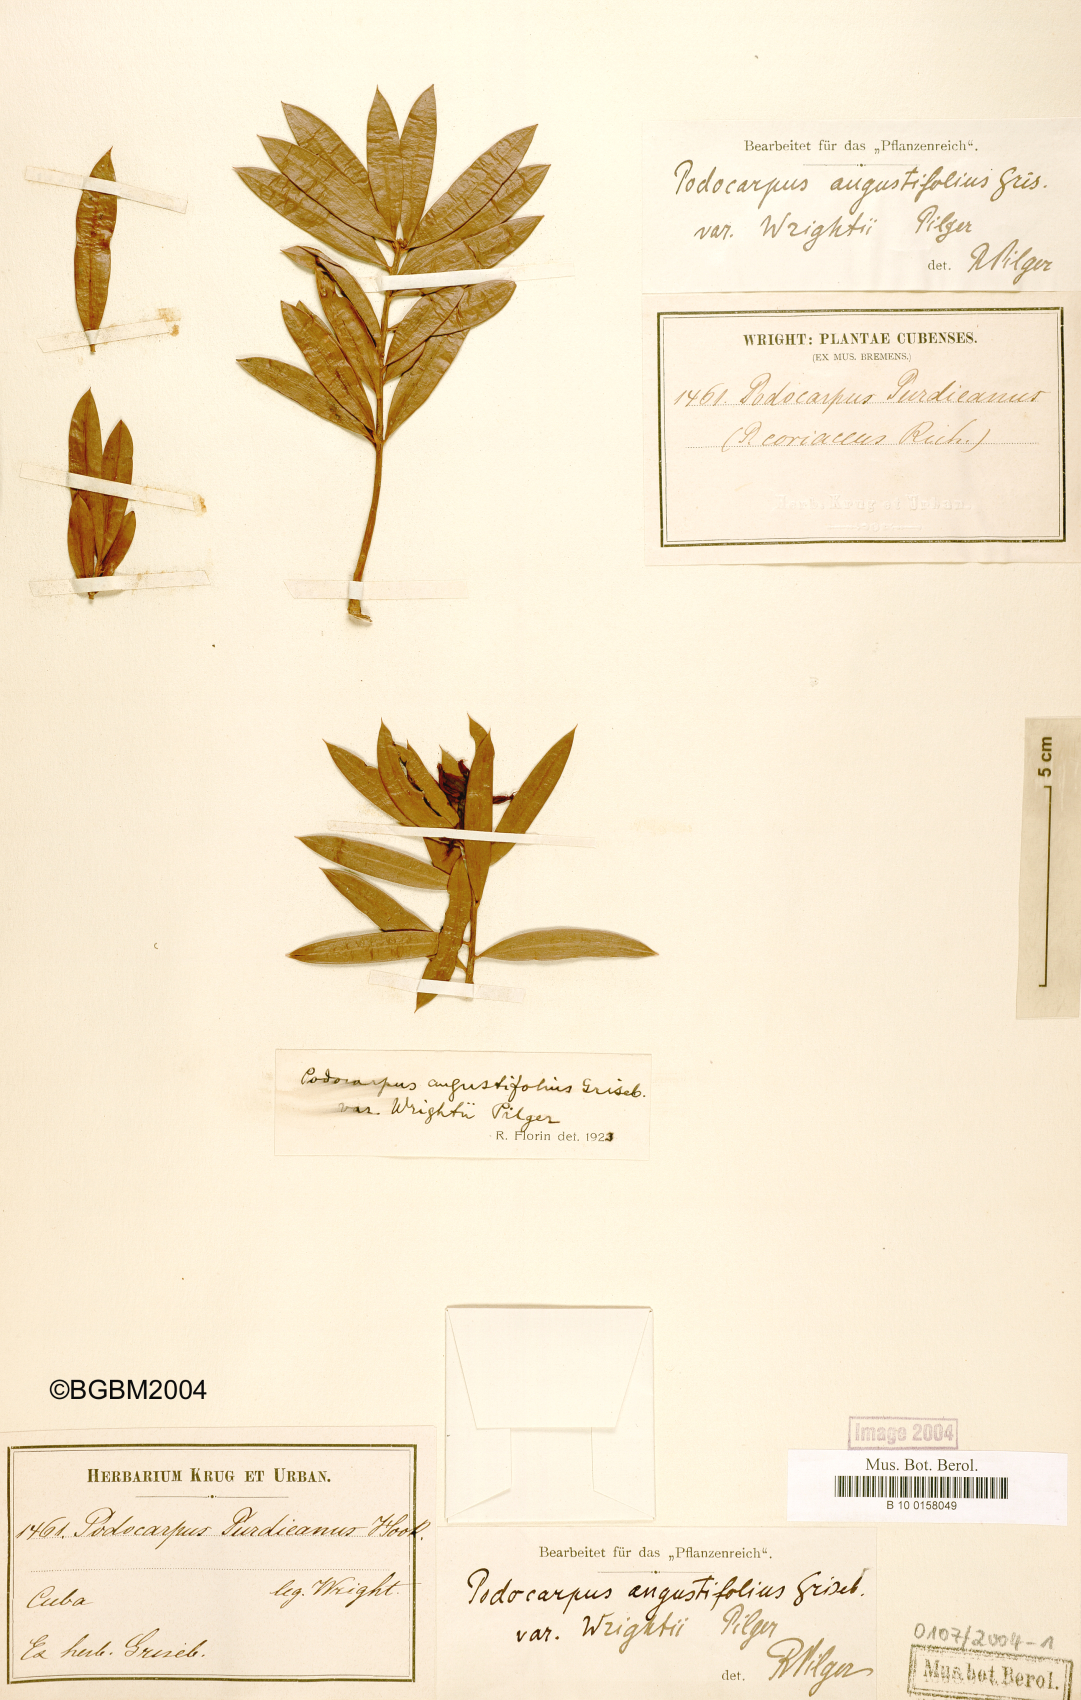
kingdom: Plantae
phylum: Tracheophyta
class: Pinopsida
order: Pinales
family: Podocarpaceae
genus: Podocarpus
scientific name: Podocarpus angustifolius
